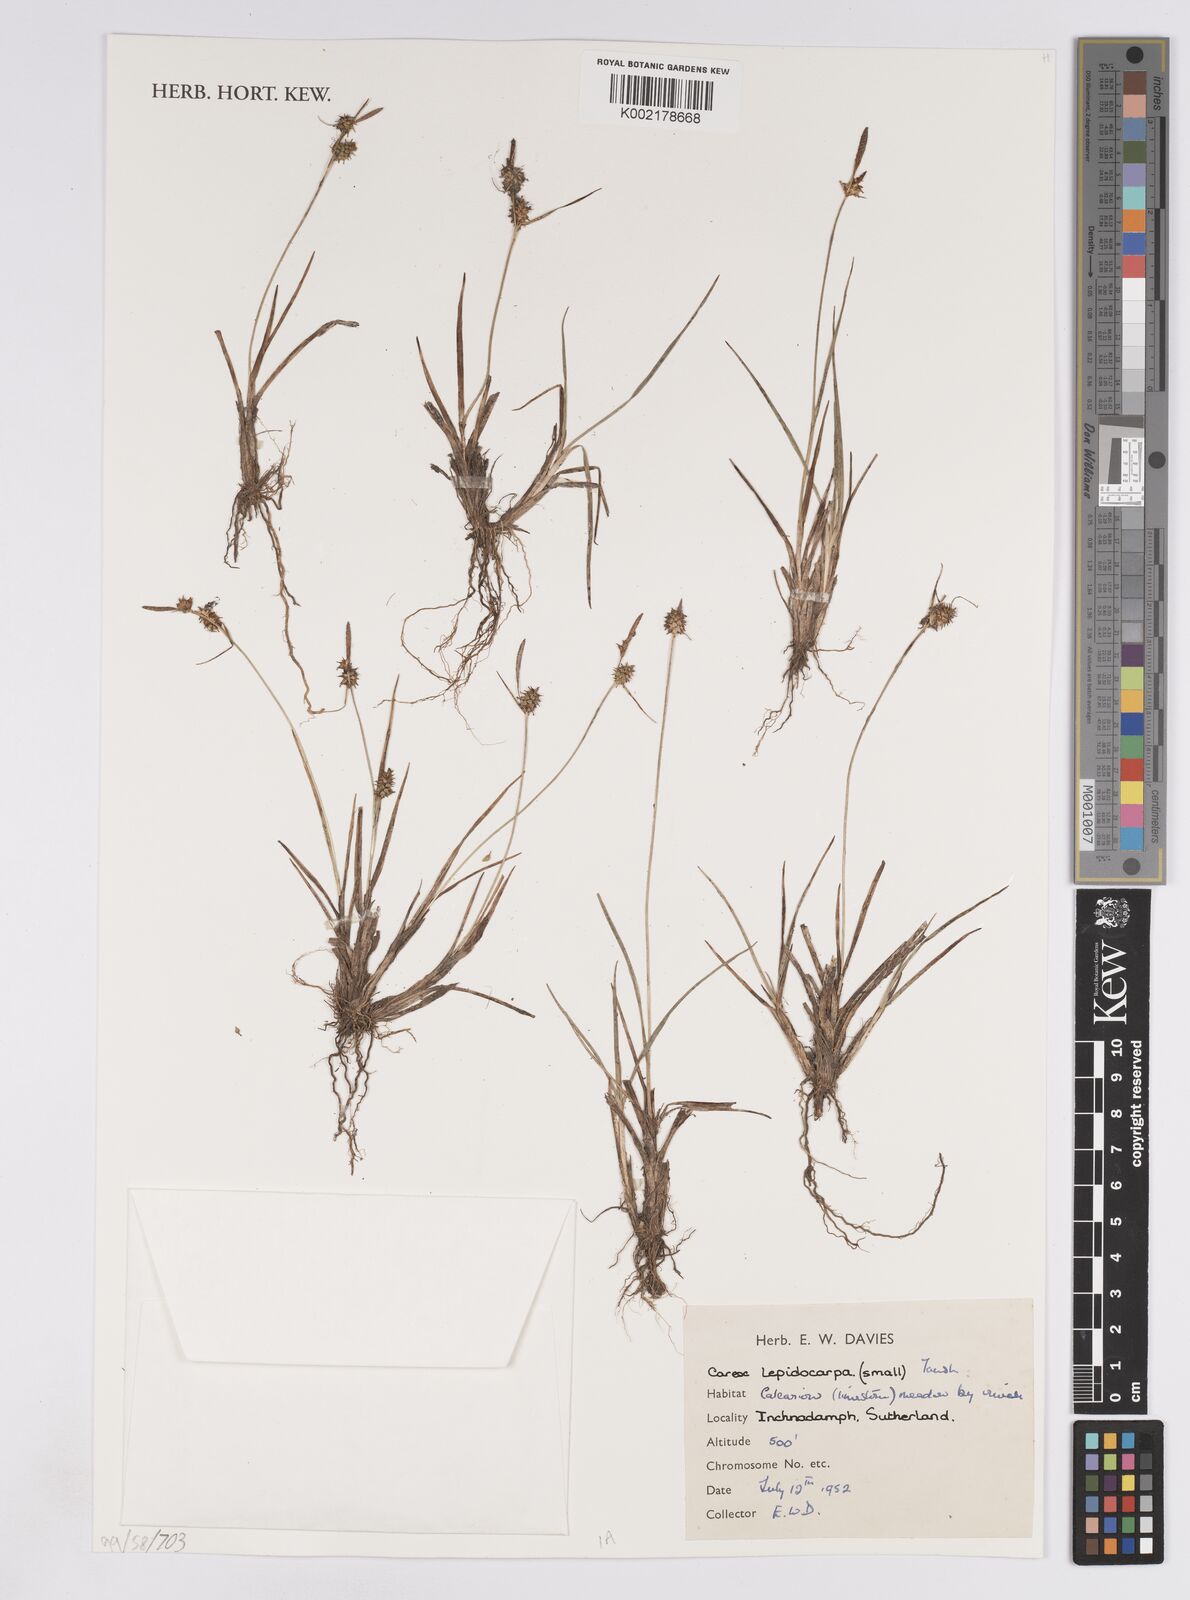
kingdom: Plantae
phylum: Tracheophyta
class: Liliopsida
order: Poales
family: Cyperaceae
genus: Carex
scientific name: Carex lepidocarpa
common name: Long-stalked yellow-sedge
